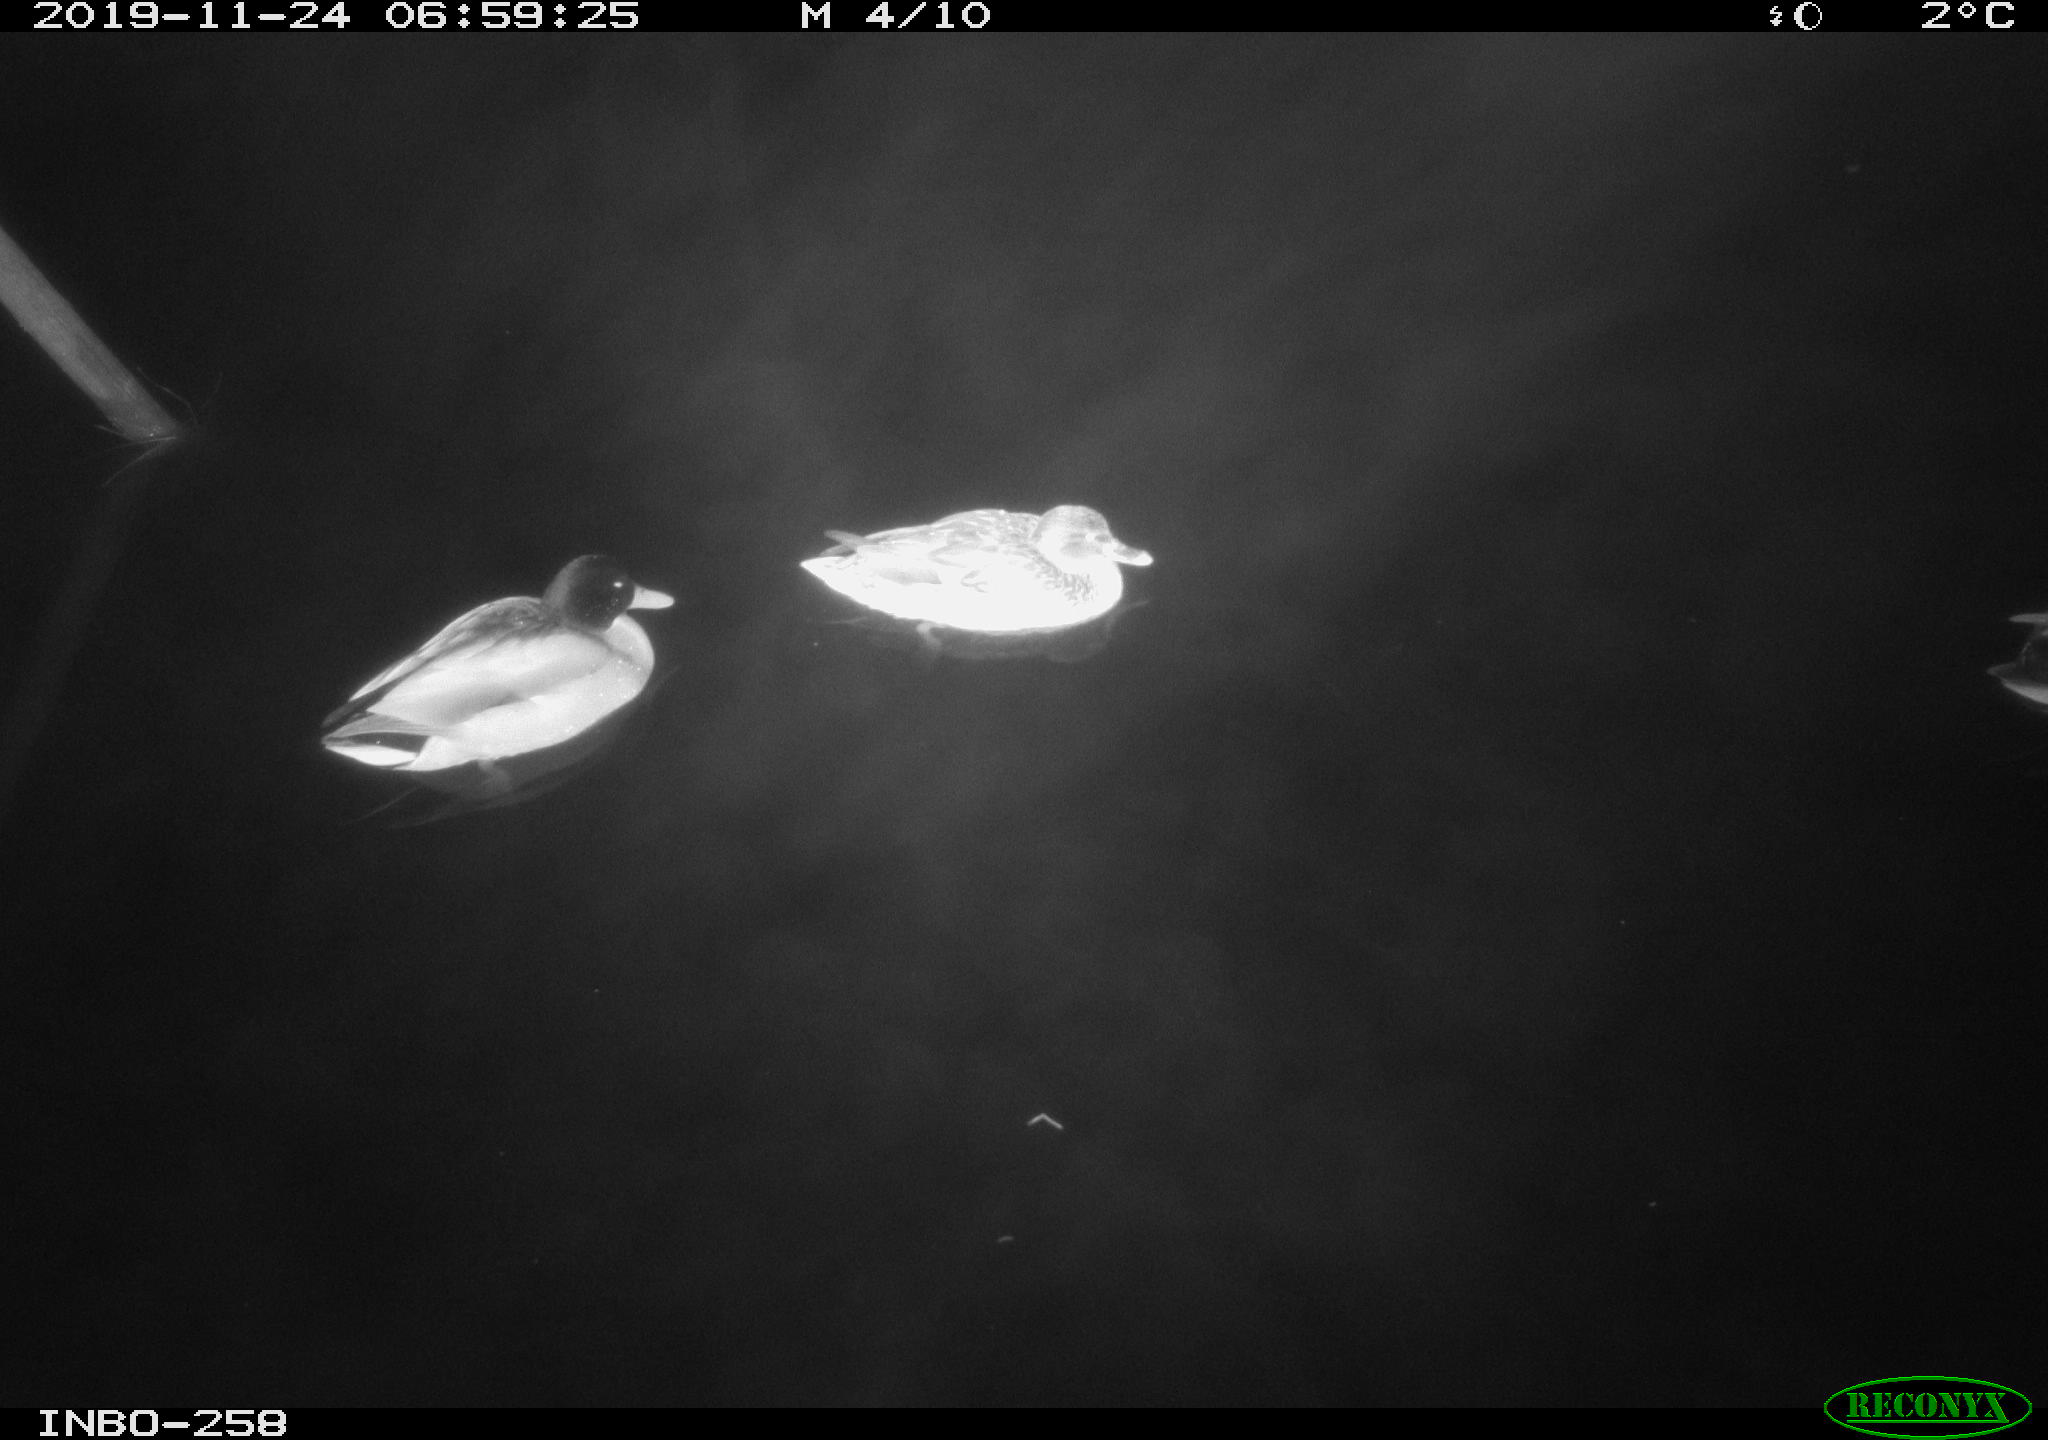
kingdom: Animalia
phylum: Chordata
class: Aves
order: Anseriformes
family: Anatidae
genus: Anas
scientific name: Anas platyrhynchos
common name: Mallard
